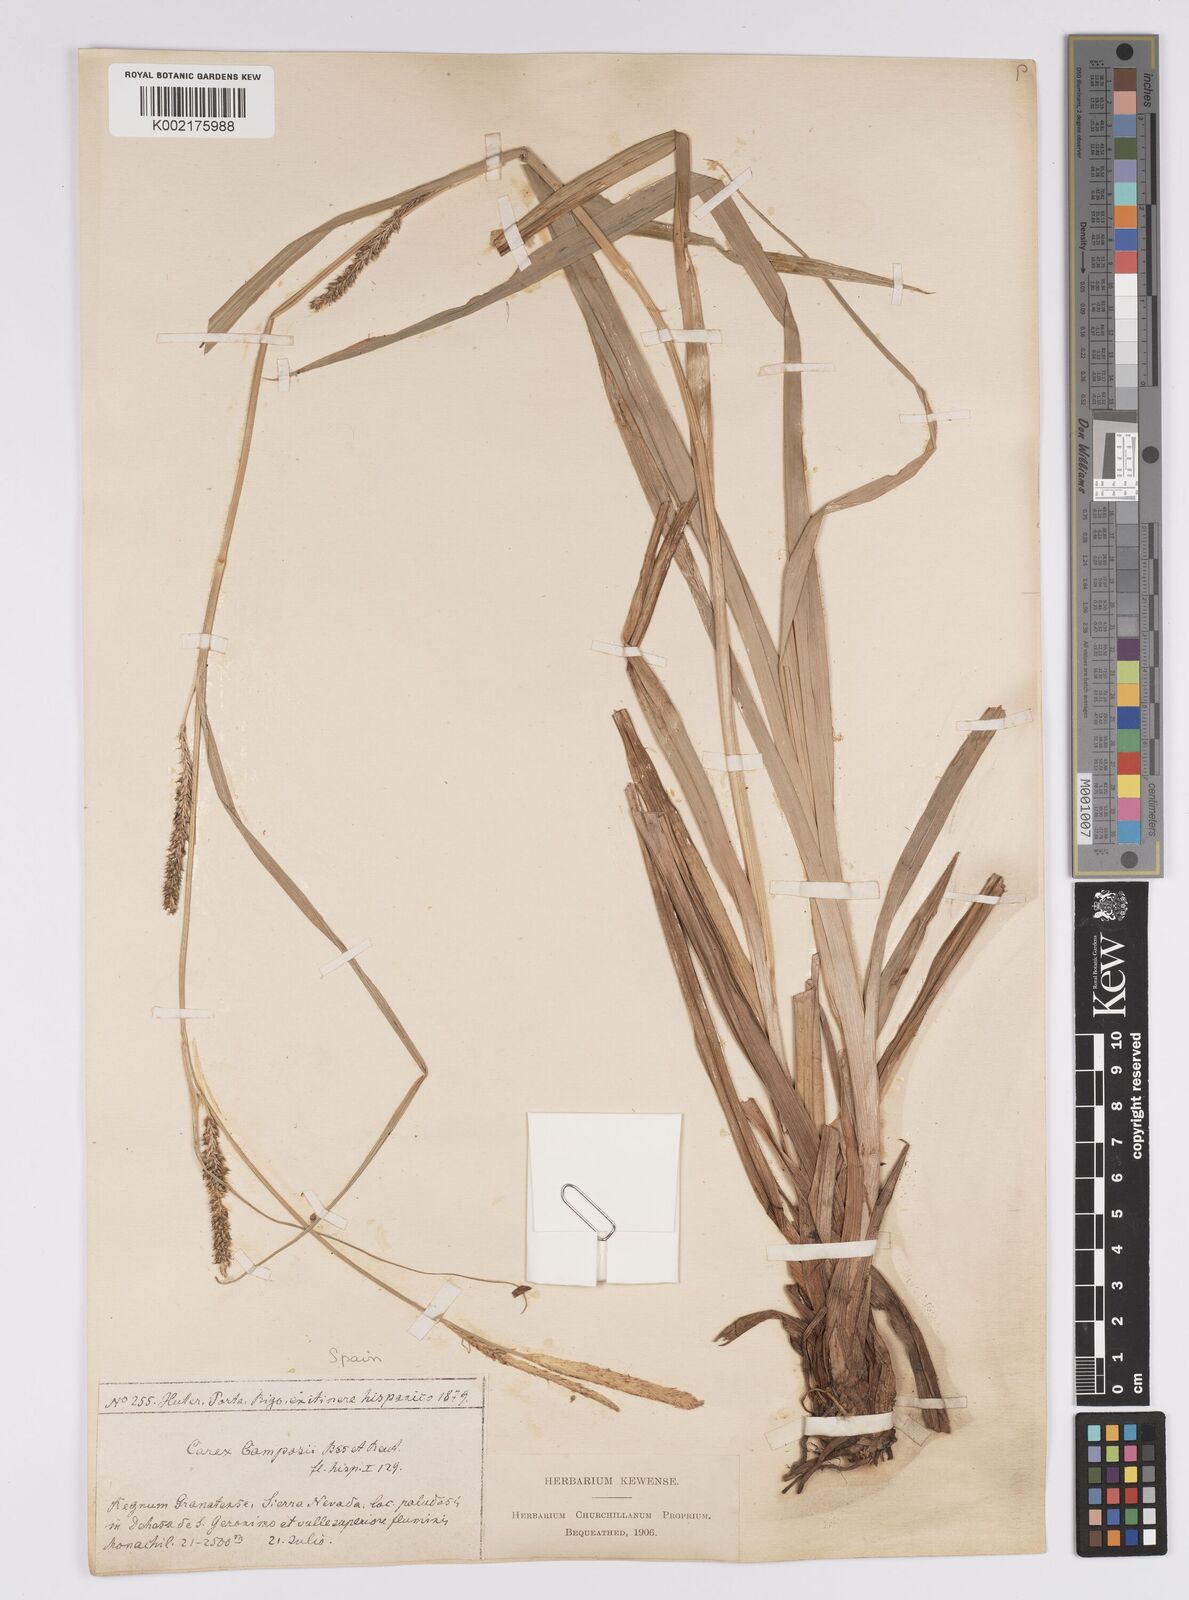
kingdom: Plantae
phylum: Tracheophyta
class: Liliopsida
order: Poales
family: Cyperaceae
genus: Carex
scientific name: Carex camposii
